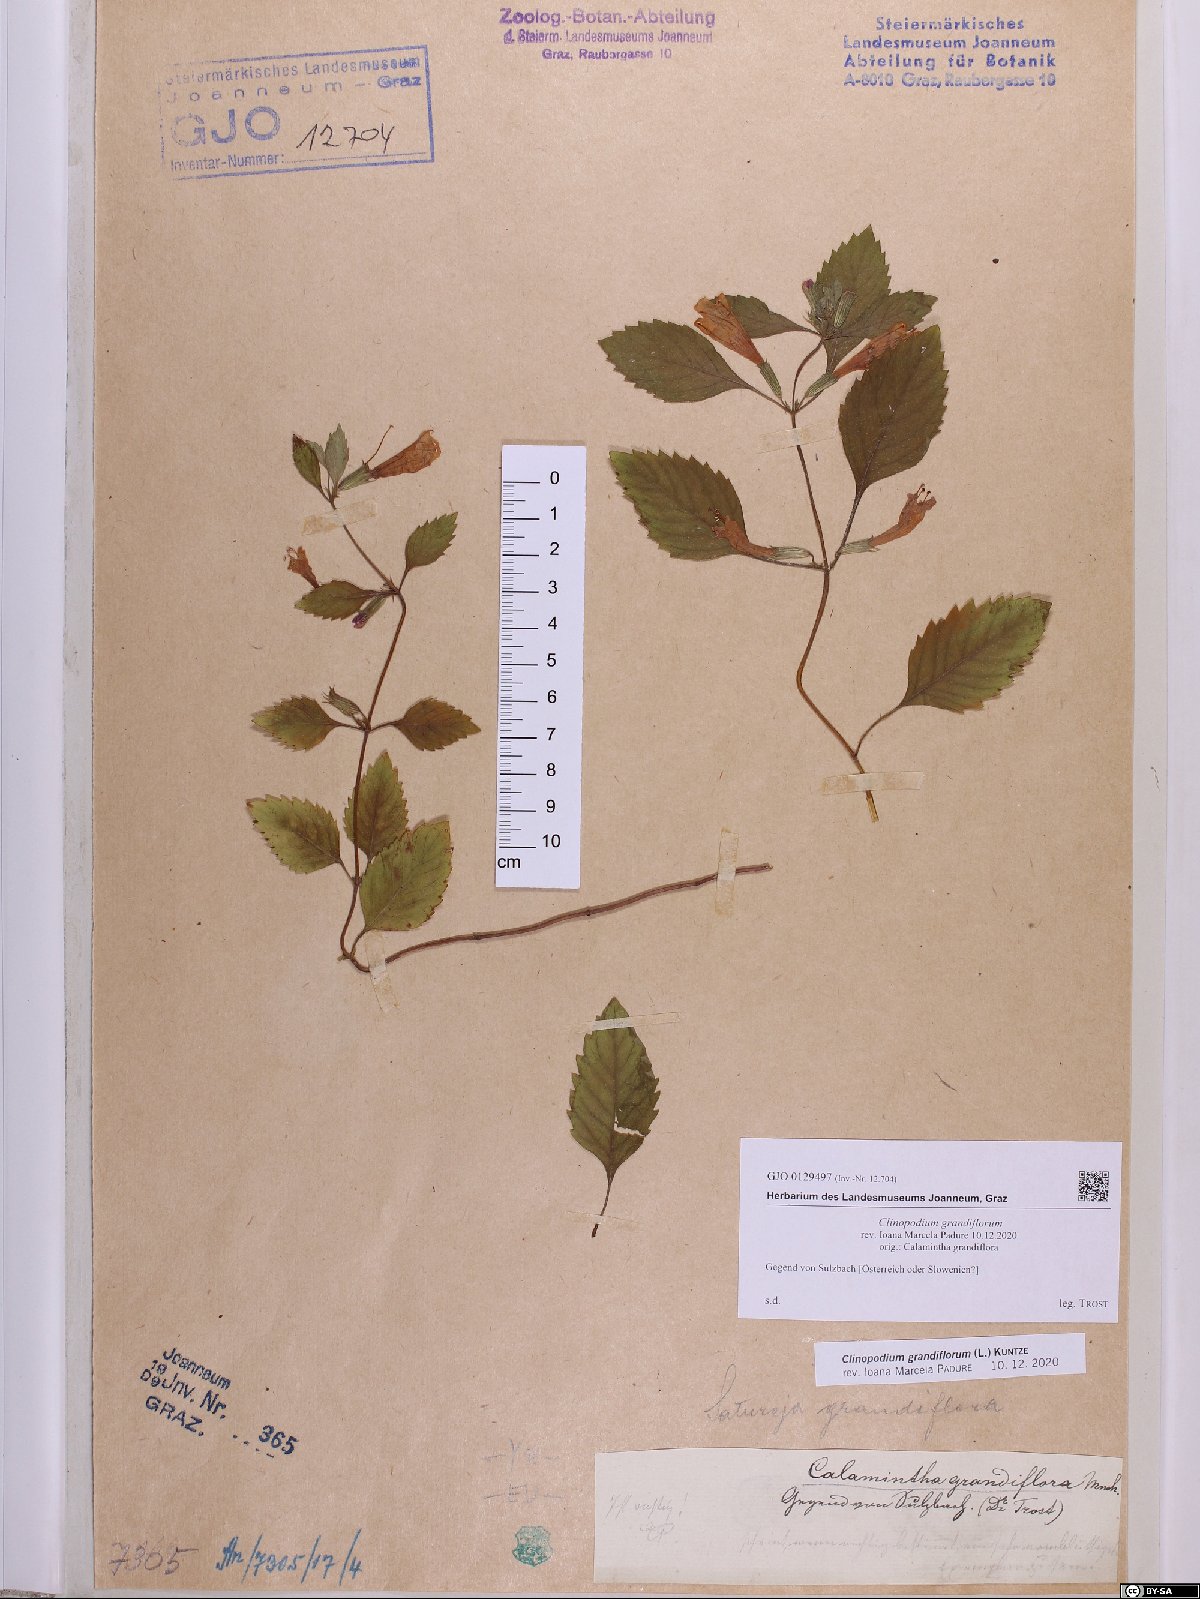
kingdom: Plantae
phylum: Tracheophyta
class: Magnoliopsida
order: Lamiales
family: Lamiaceae
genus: Clinopodium
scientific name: Clinopodium grandiflorum
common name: Greater calamint
